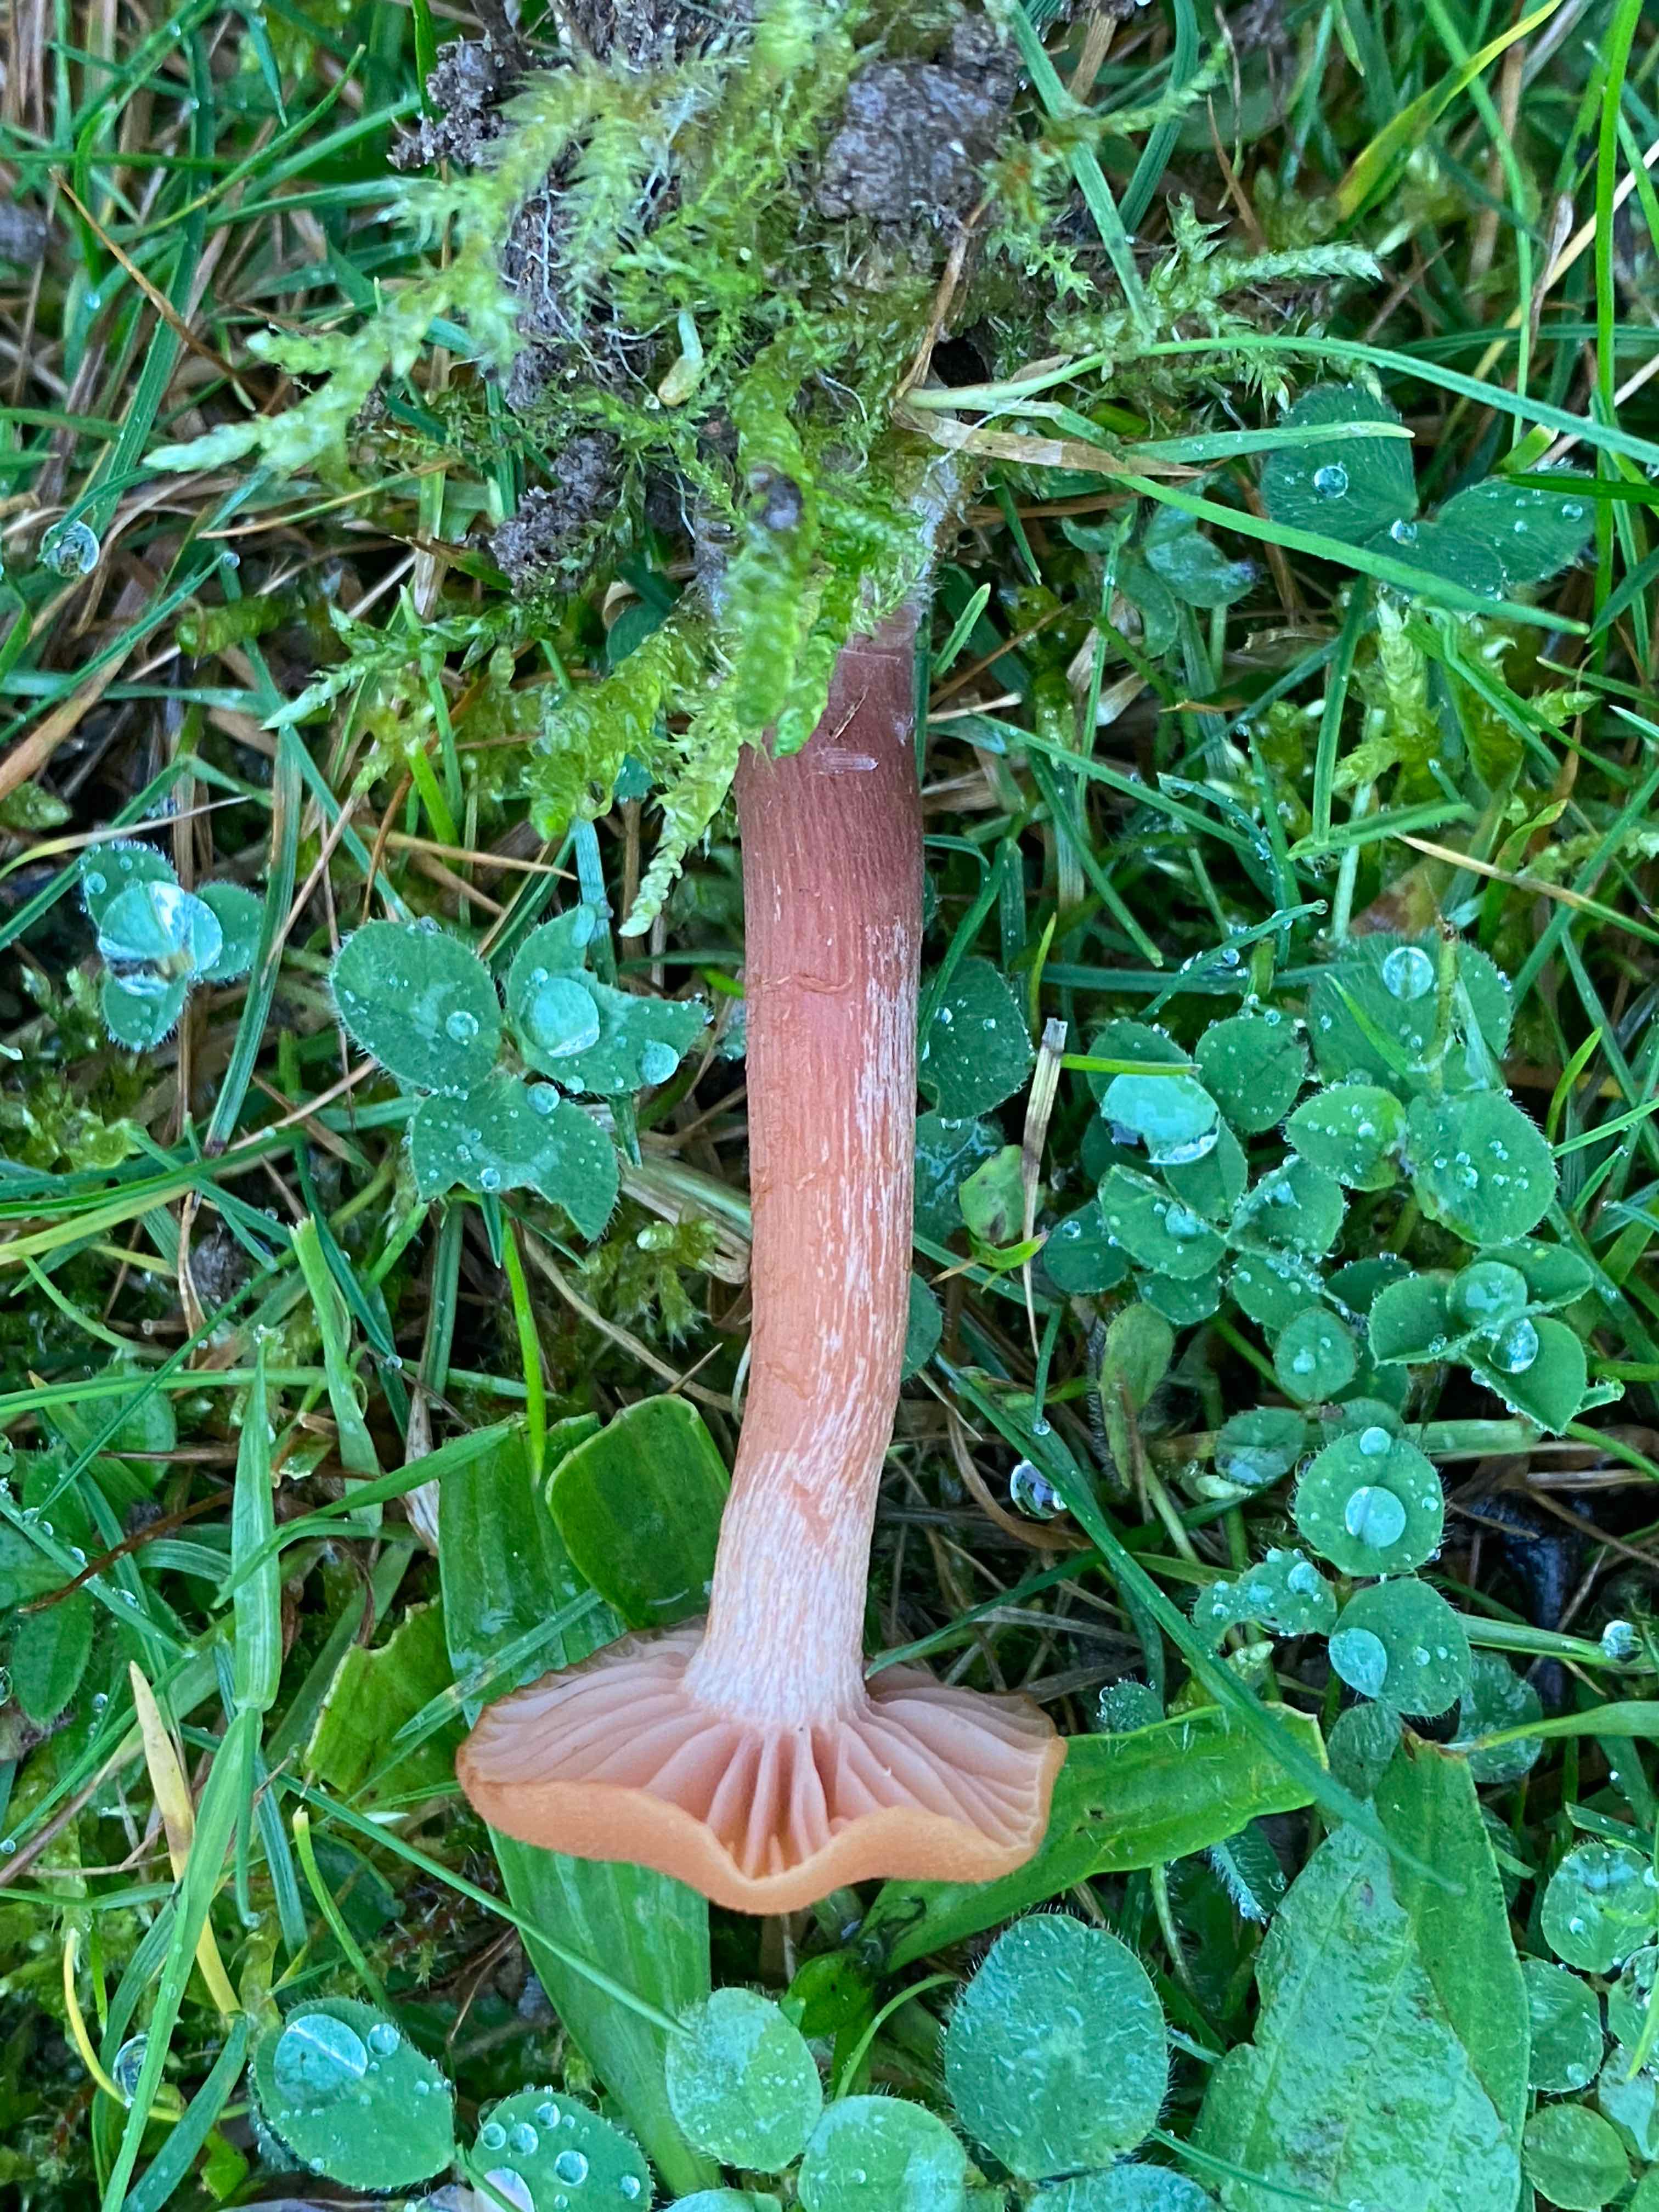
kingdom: Fungi
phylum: Basidiomycota
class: Agaricomycetes
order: Agaricales
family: Hydnangiaceae
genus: Laccaria
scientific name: Laccaria laccata
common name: rød ametysthat
